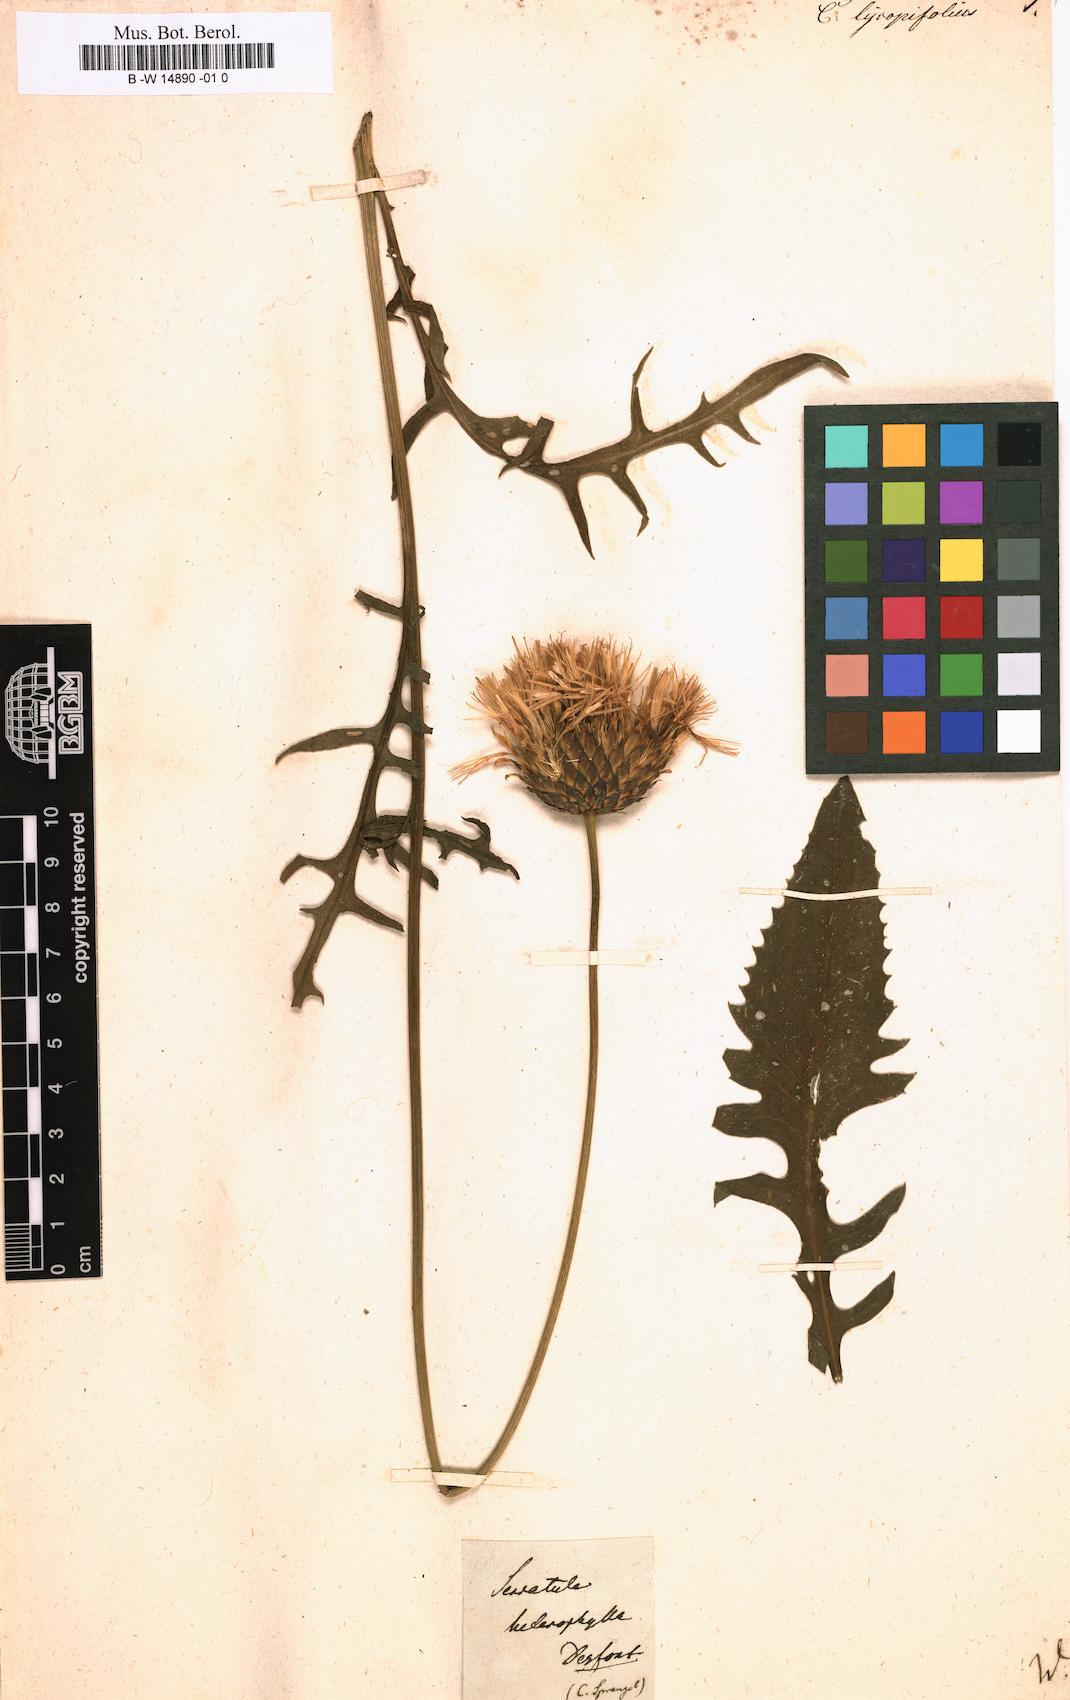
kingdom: Plantae
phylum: Tracheophyta
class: Magnoliopsida
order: Asterales
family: Asteraceae
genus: Klasea
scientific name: Klasea lycopifolia
